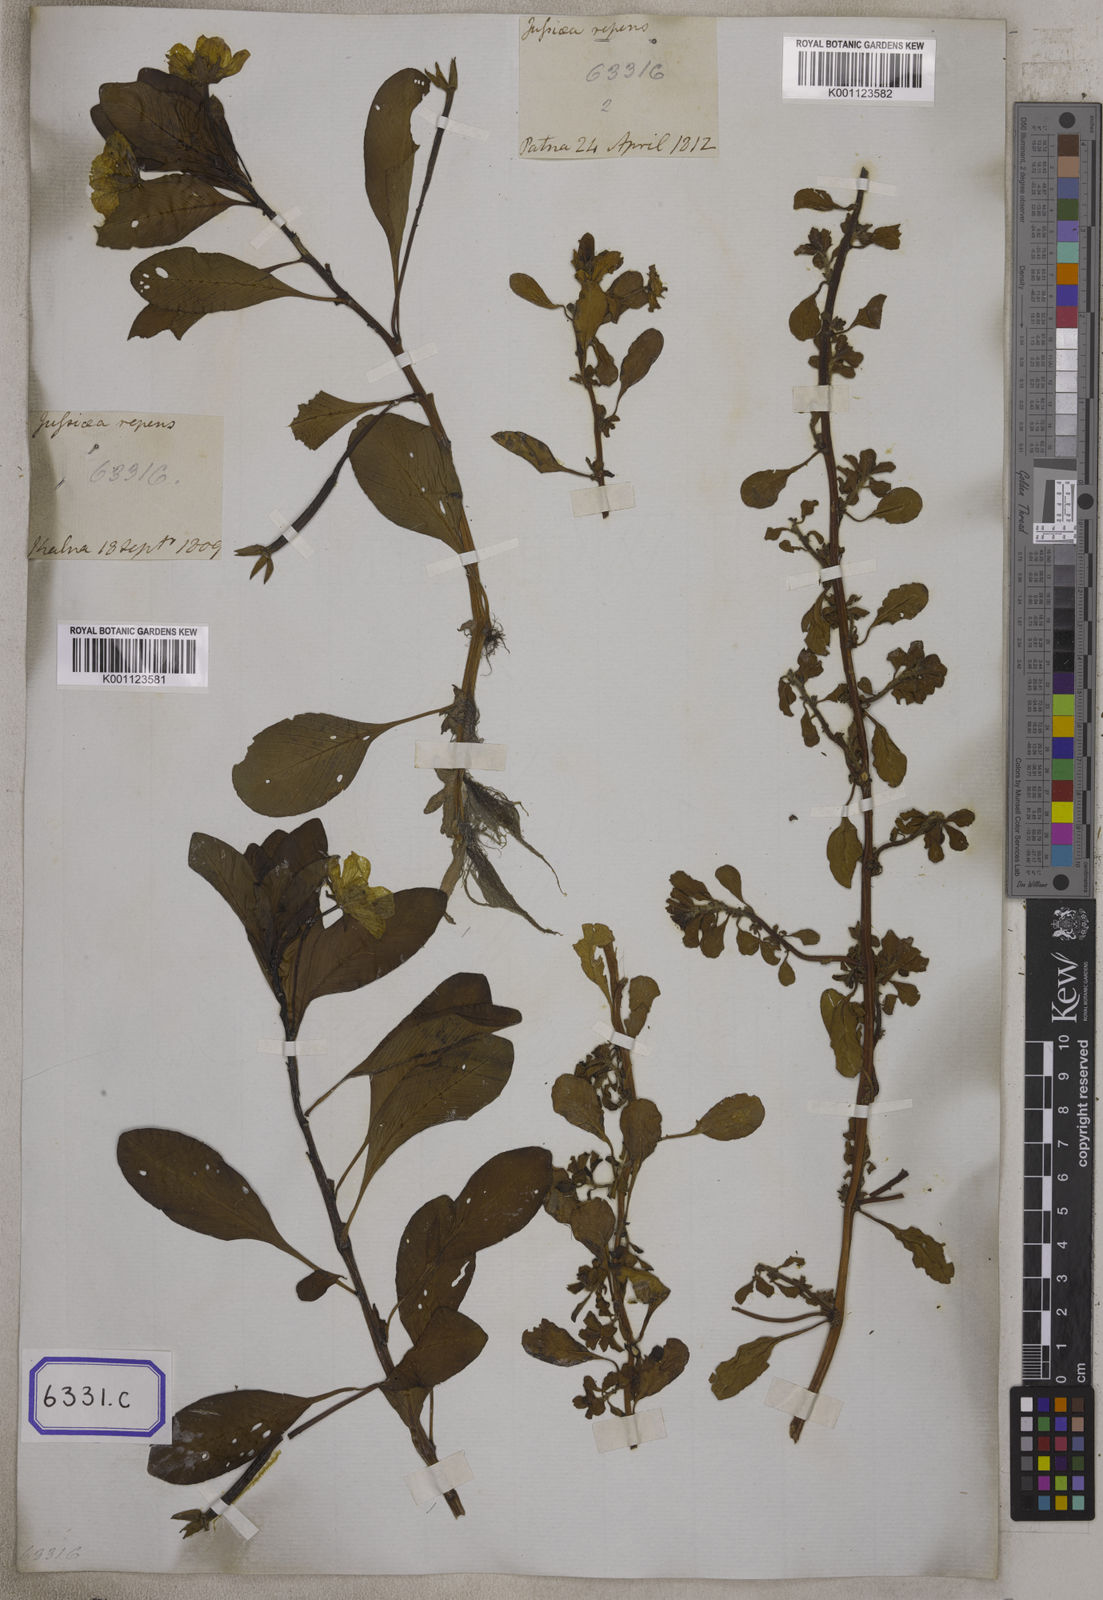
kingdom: Plantae
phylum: Tracheophyta
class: Magnoliopsida
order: Myrtales
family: Onagraceae
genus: Ludwigia
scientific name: Ludwigia adscendens
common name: Creeping water primrose
